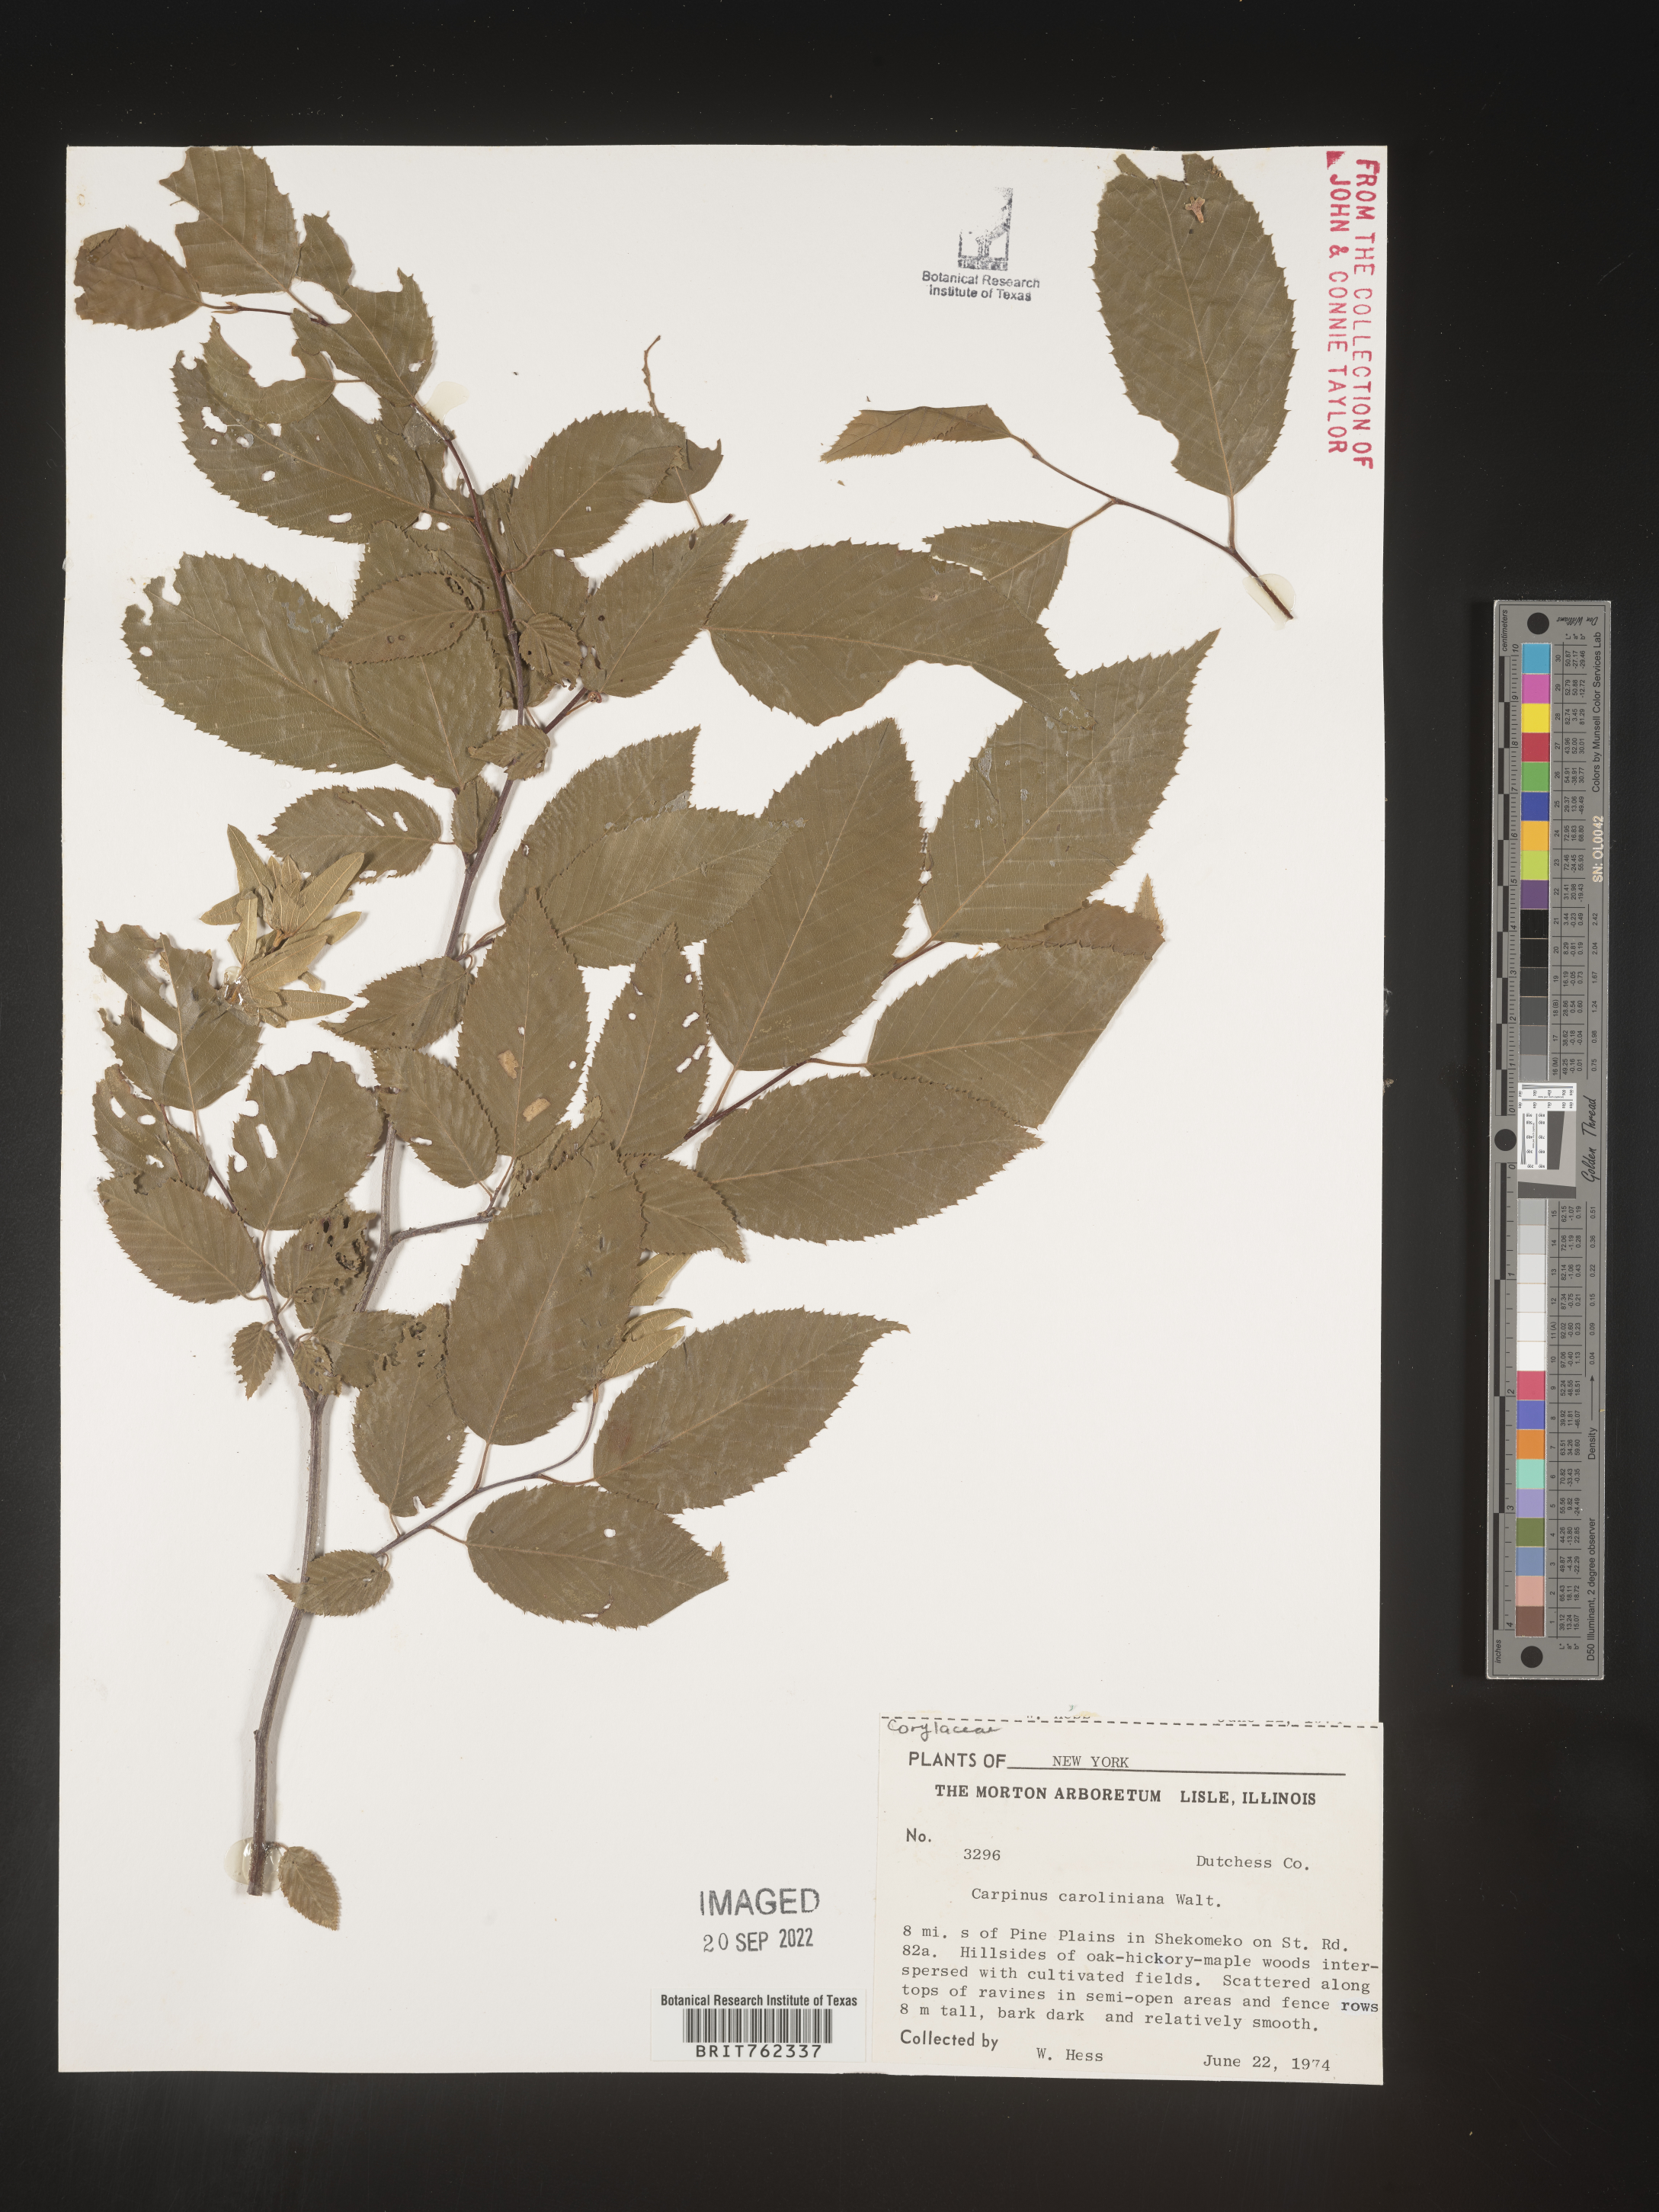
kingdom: Plantae
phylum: Tracheophyta
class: Magnoliopsida
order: Fagales
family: Betulaceae
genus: Carpinus
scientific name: Carpinus caroliniana
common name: American hornbeam
